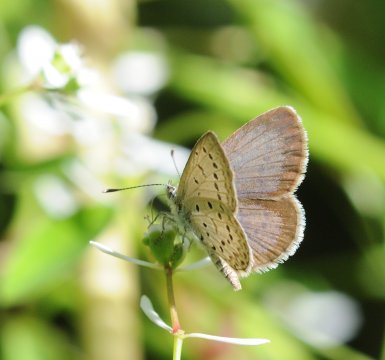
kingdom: Animalia
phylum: Arthropoda
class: Insecta
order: Lepidoptera
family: Lycaenidae
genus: Zizeeria
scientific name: Zizeeria knysna
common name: Dark Grass Blue
